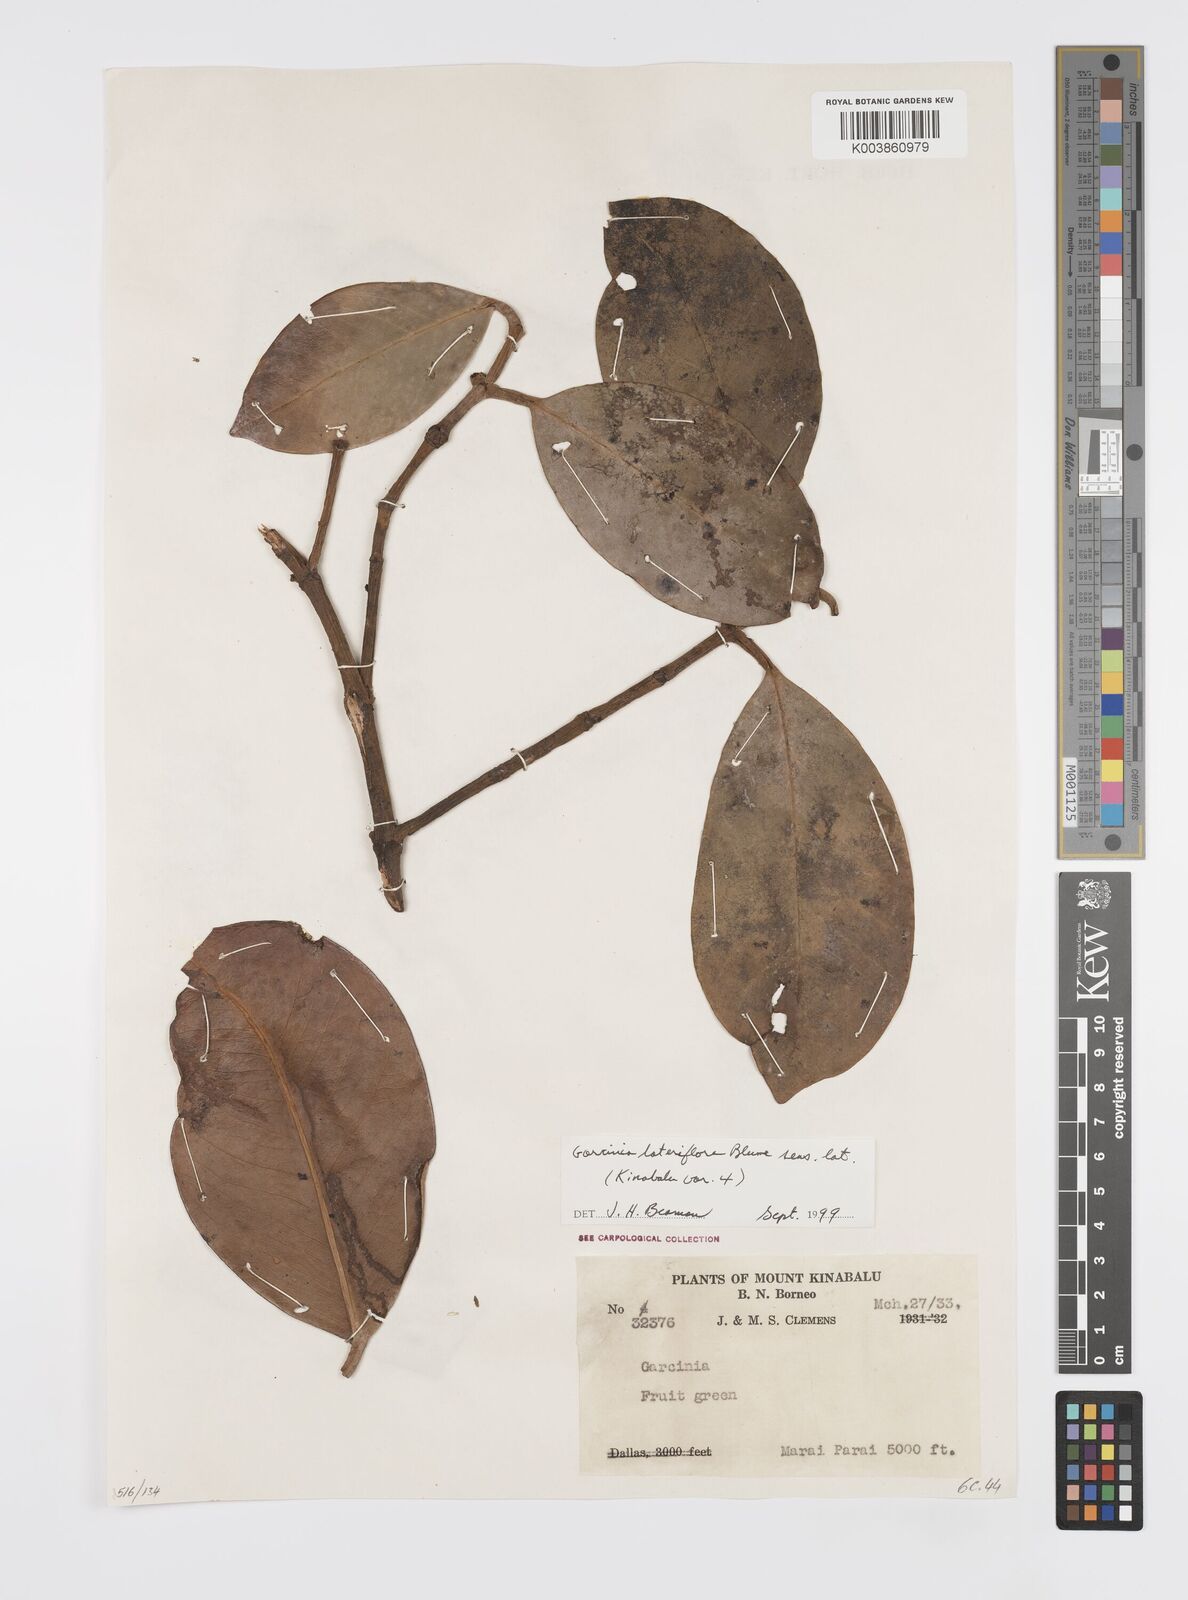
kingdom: Plantae
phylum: Tracheophyta
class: Magnoliopsida
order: Malpighiales
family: Clusiaceae
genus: Garcinia
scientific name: Garcinia lateriflora
